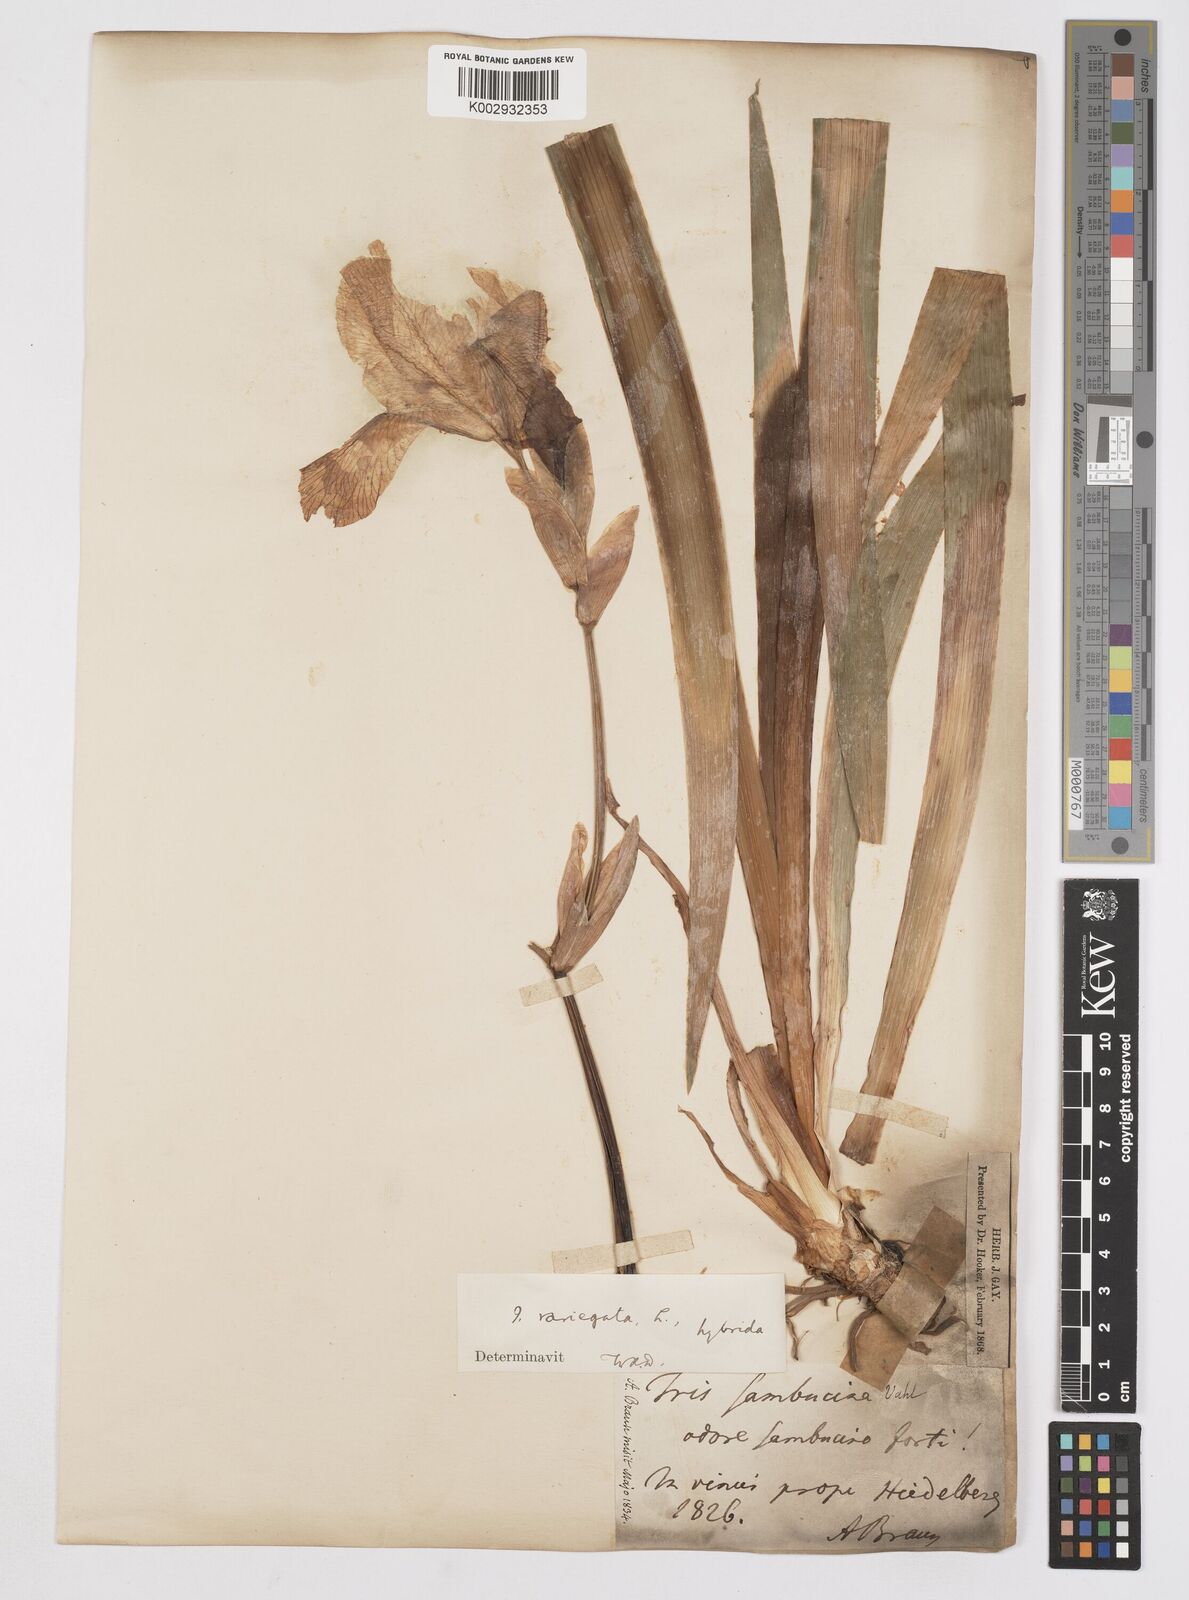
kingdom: Plantae
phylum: Tracheophyta
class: Liliopsida
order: Asparagales
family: Iridaceae
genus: Iris
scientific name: Iris germanica
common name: German iris
